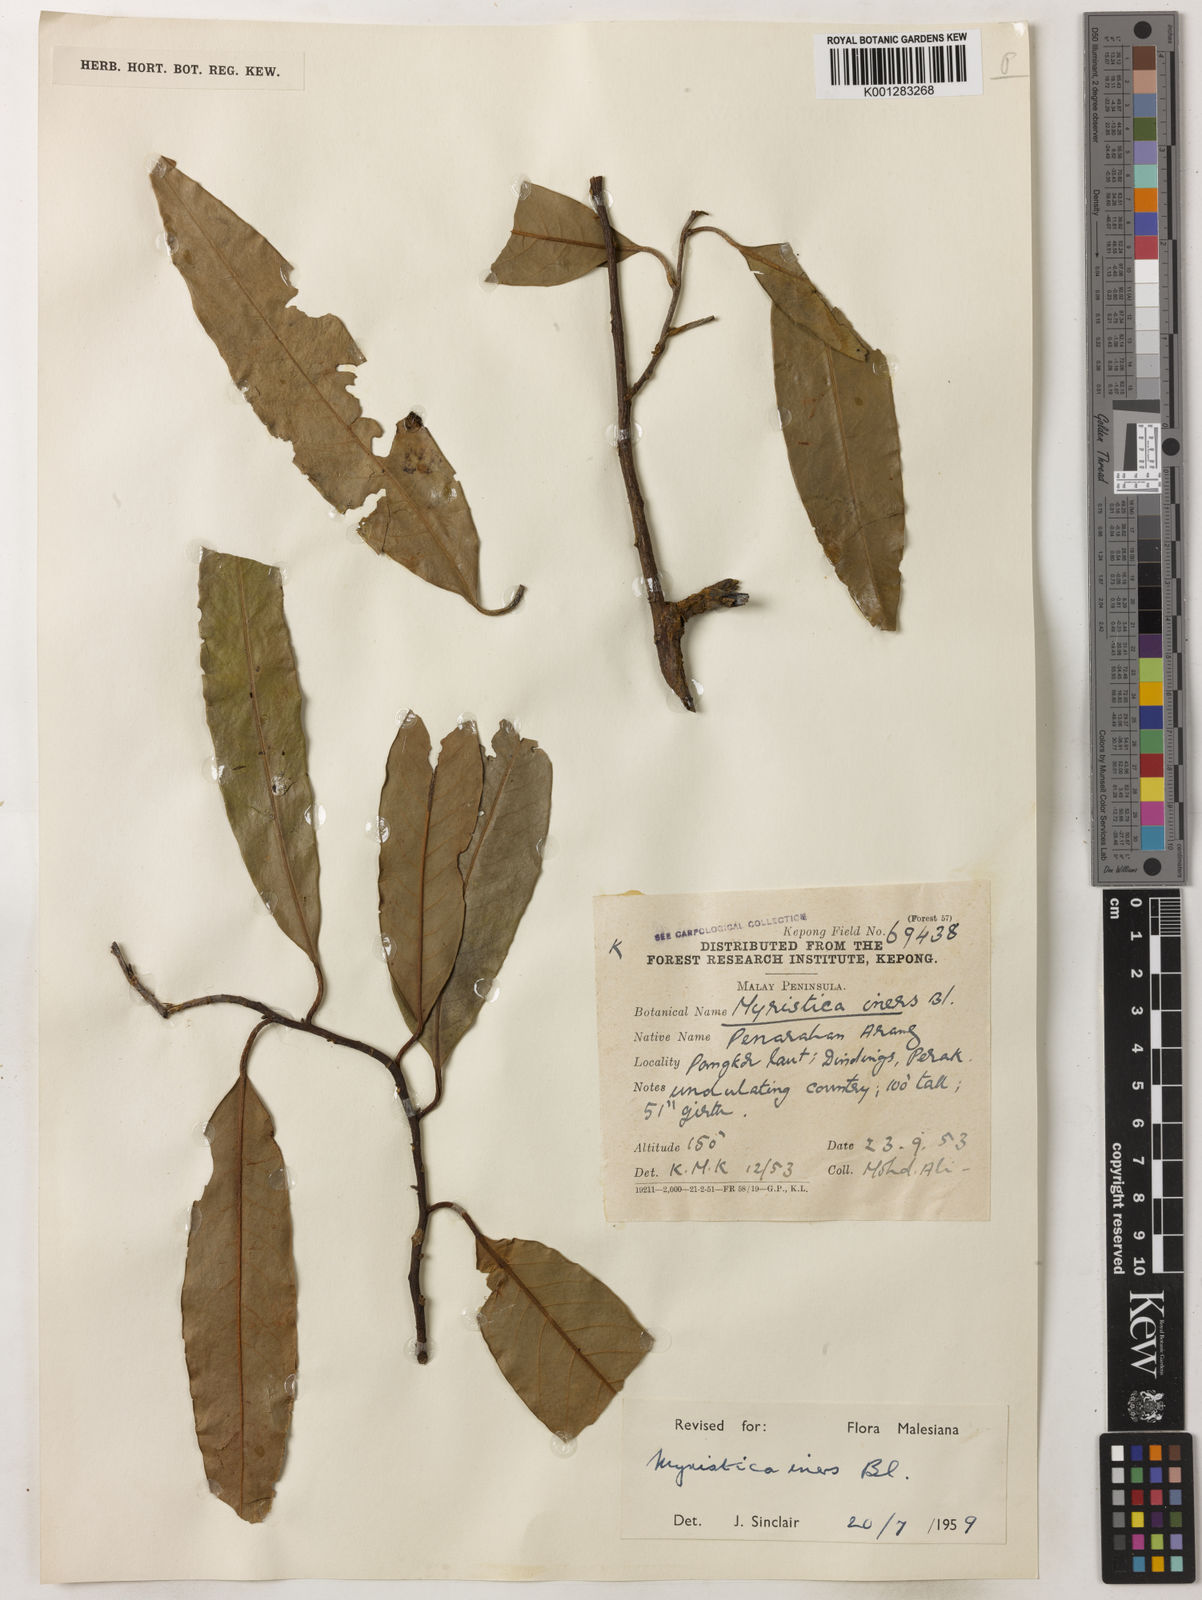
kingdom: Plantae
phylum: Tracheophyta
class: Magnoliopsida
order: Magnoliales
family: Myristicaceae
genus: Myristica
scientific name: Myristica iners
